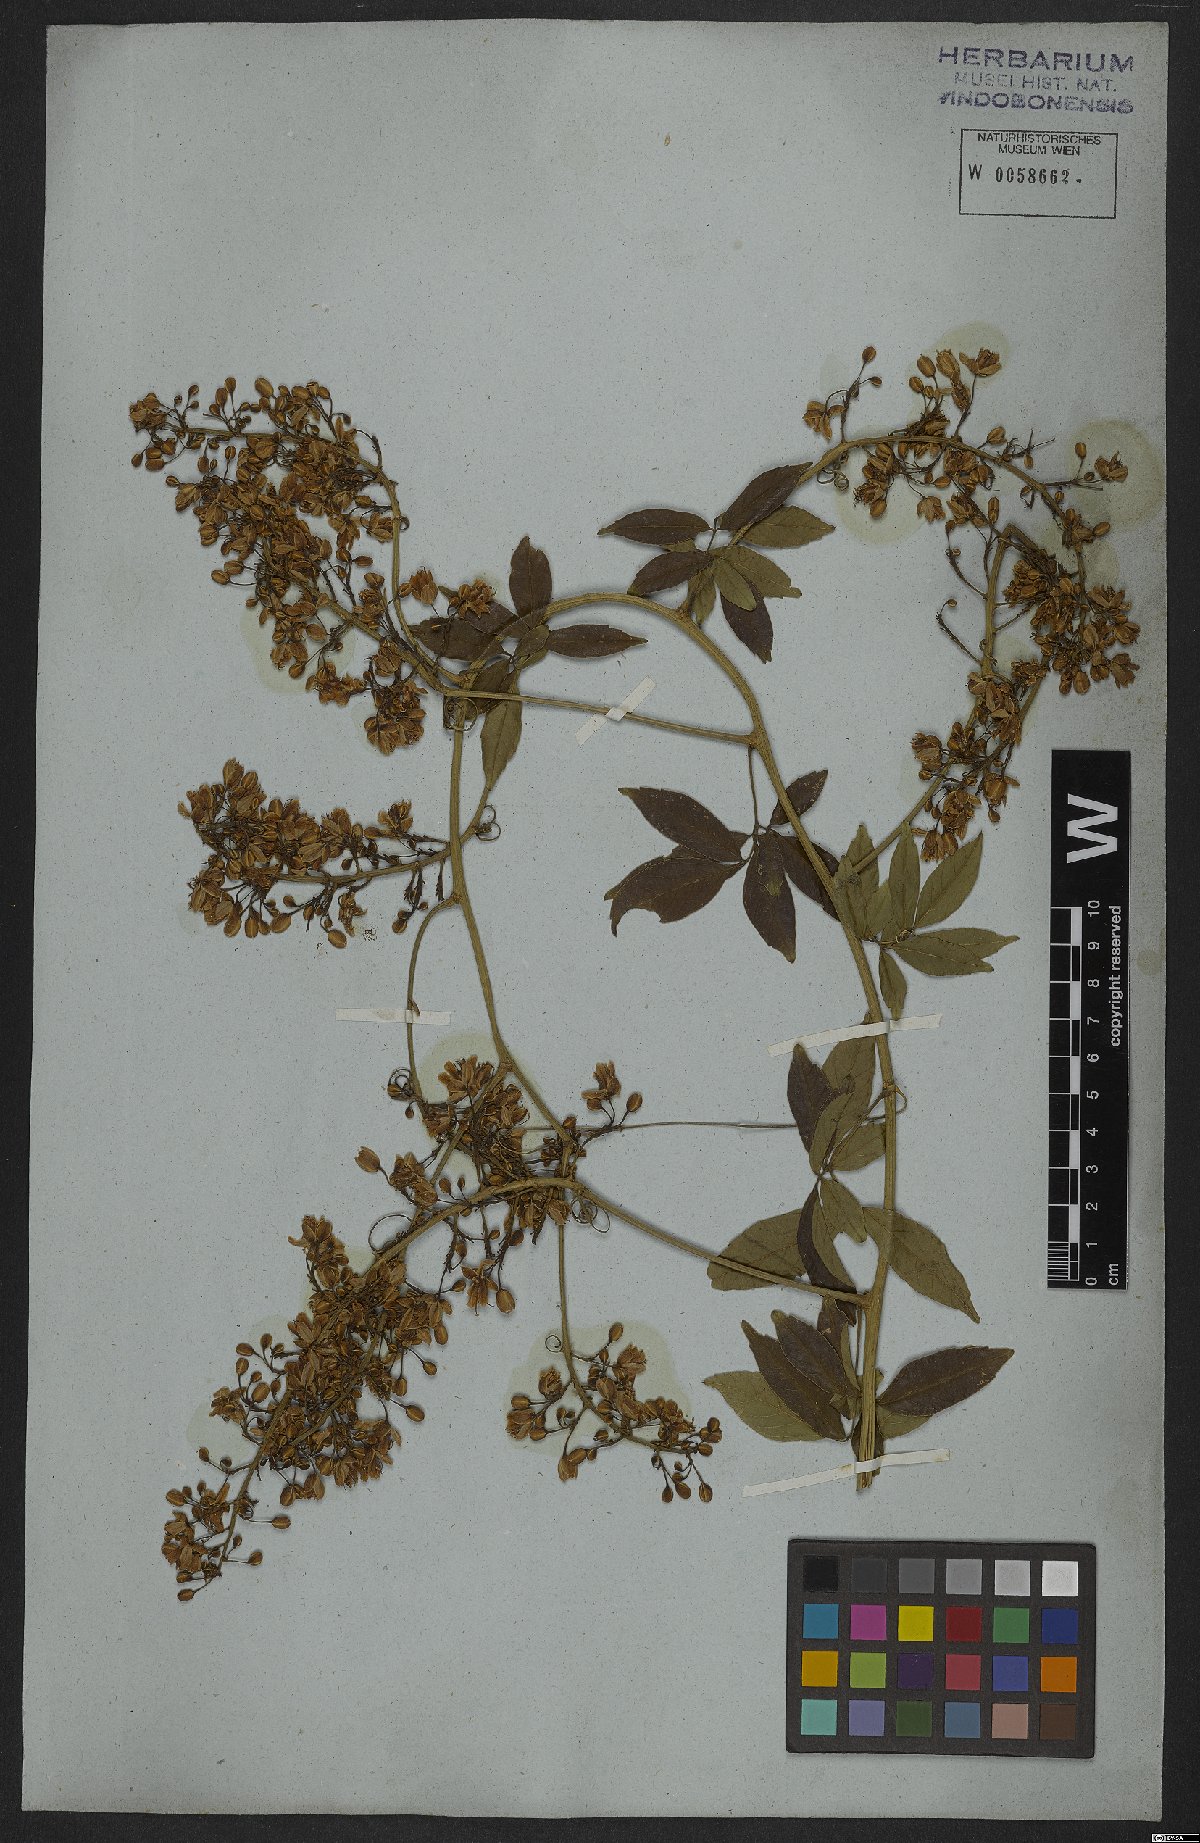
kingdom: Plantae
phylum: Tracheophyta
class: Magnoliopsida
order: Sapindales
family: Sapindaceae
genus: Serjania
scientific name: Serjania caracasana
